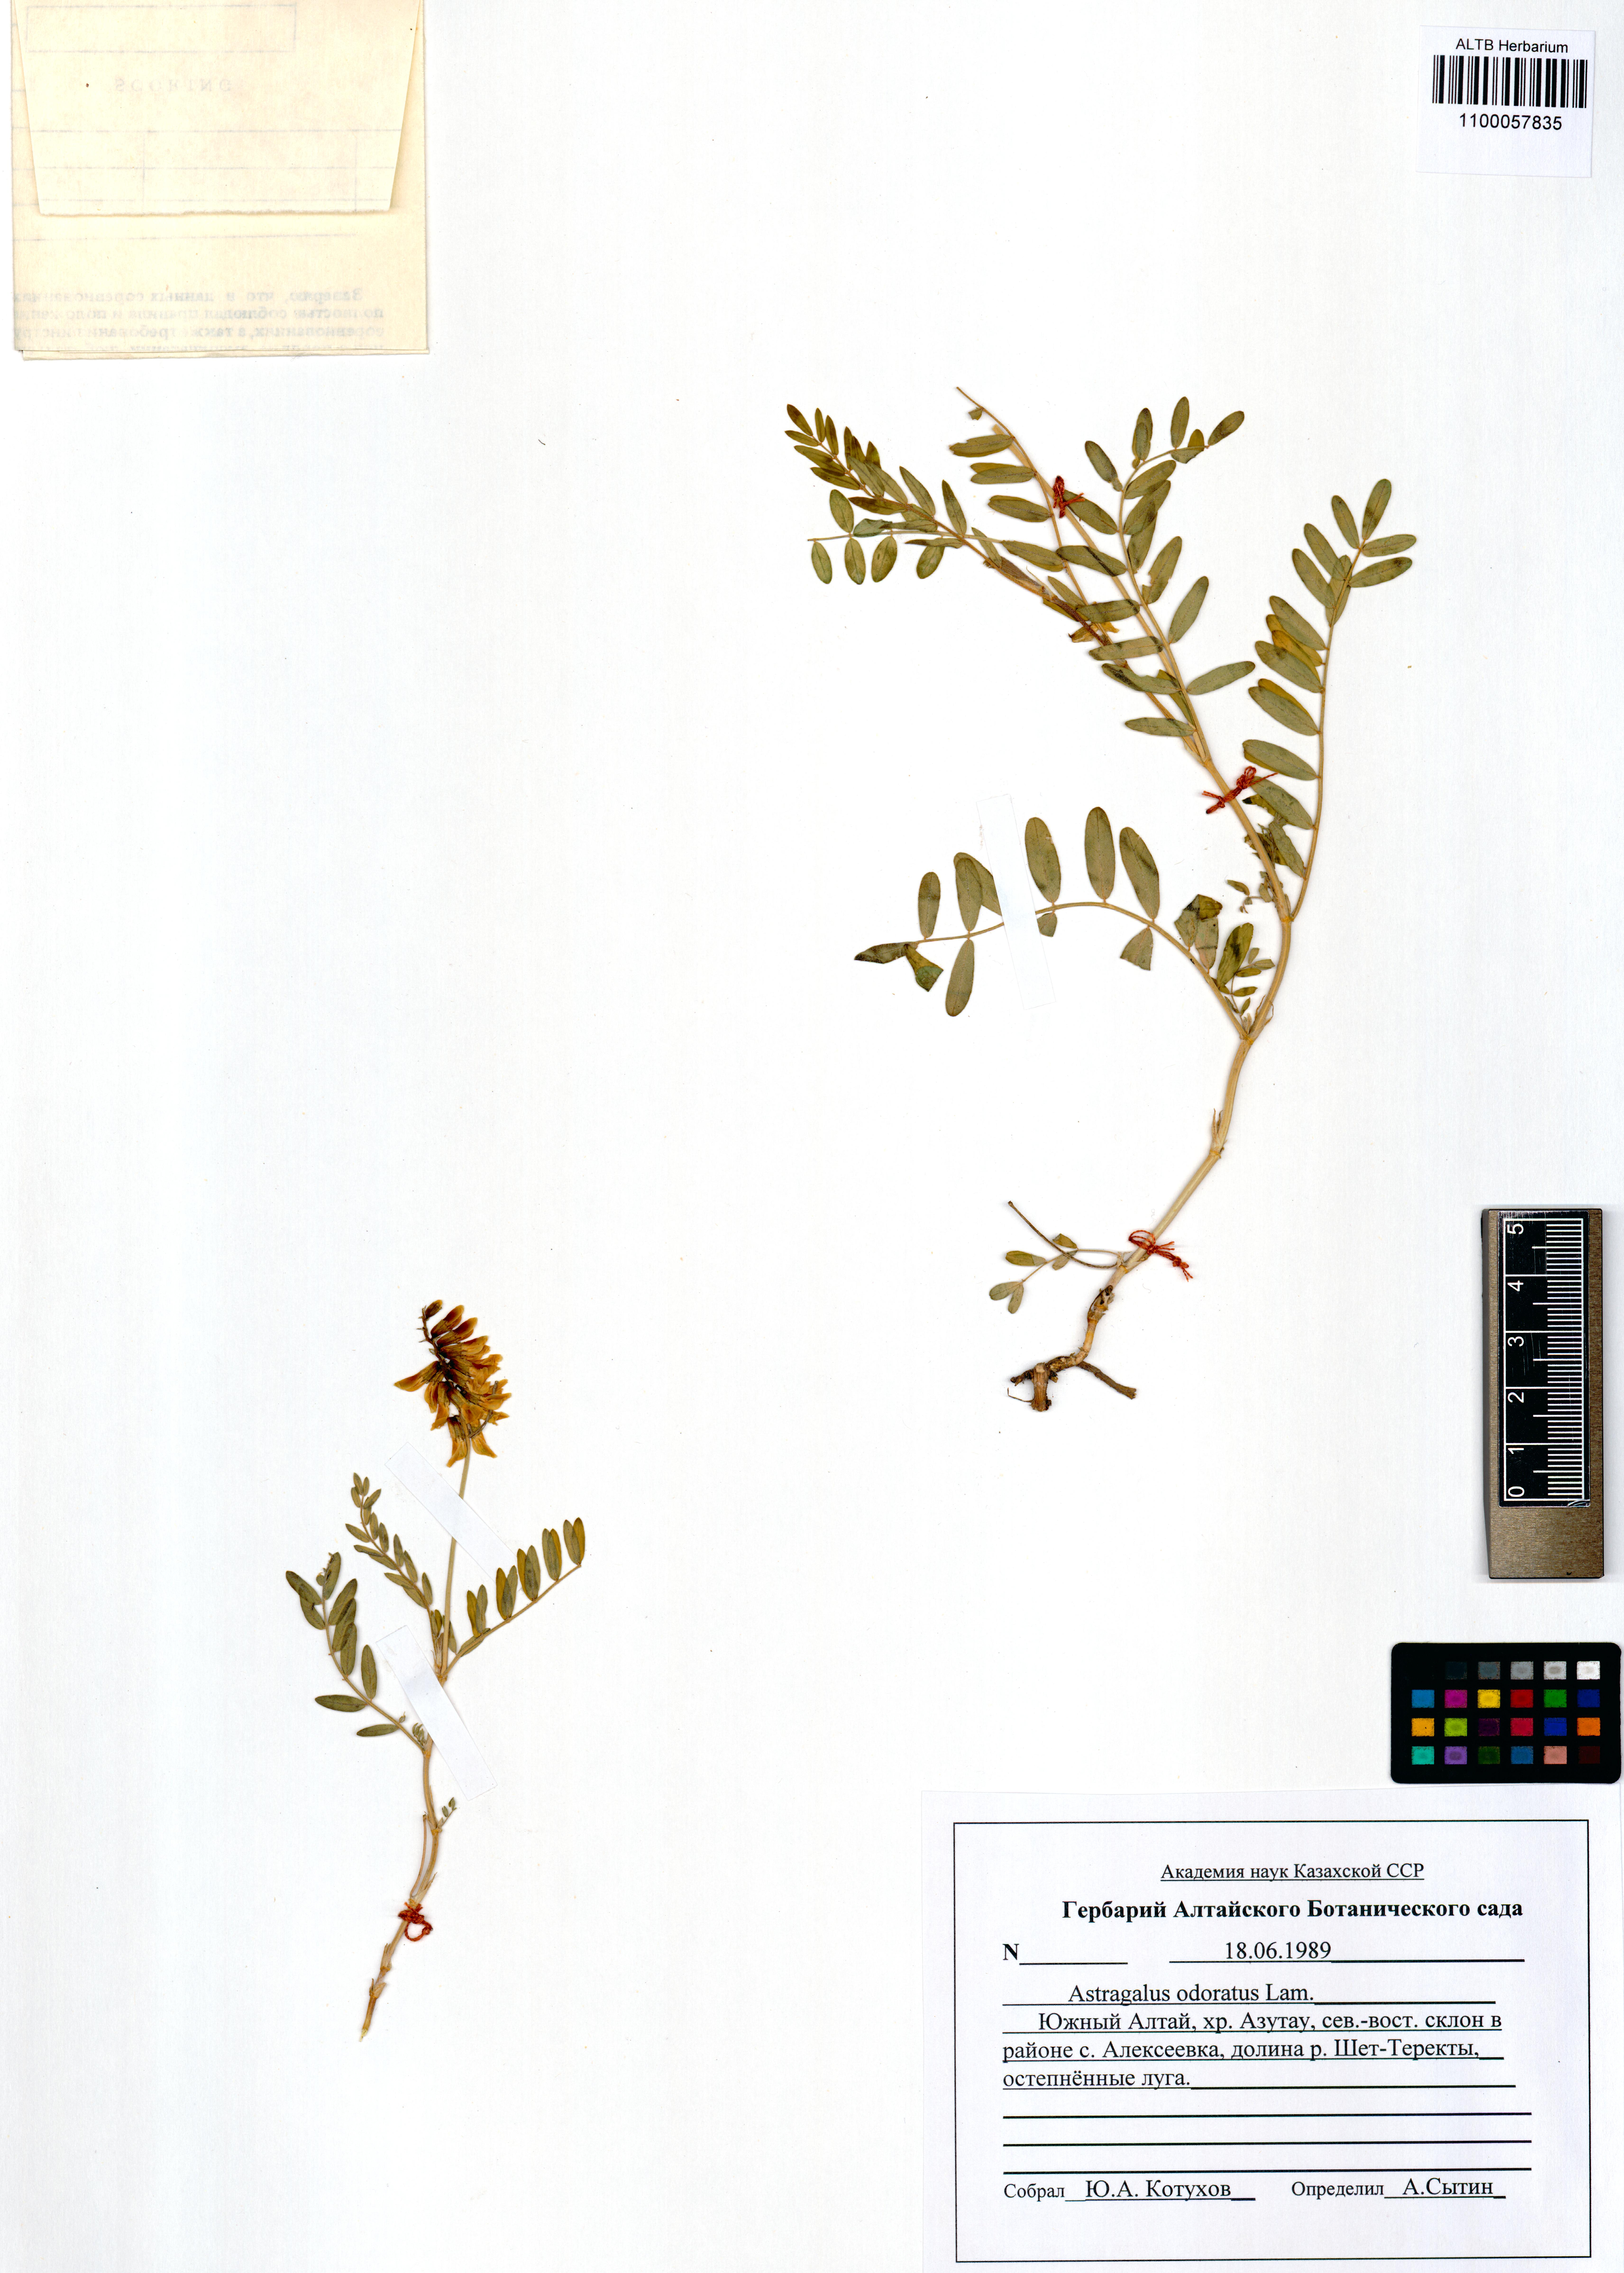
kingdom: Plantae
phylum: Tracheophyta
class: Magnoliopsida
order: Fabales
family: Fabaceae
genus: Astragalus
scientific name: Astragalus odoratus
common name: Lesser milk-vetch
